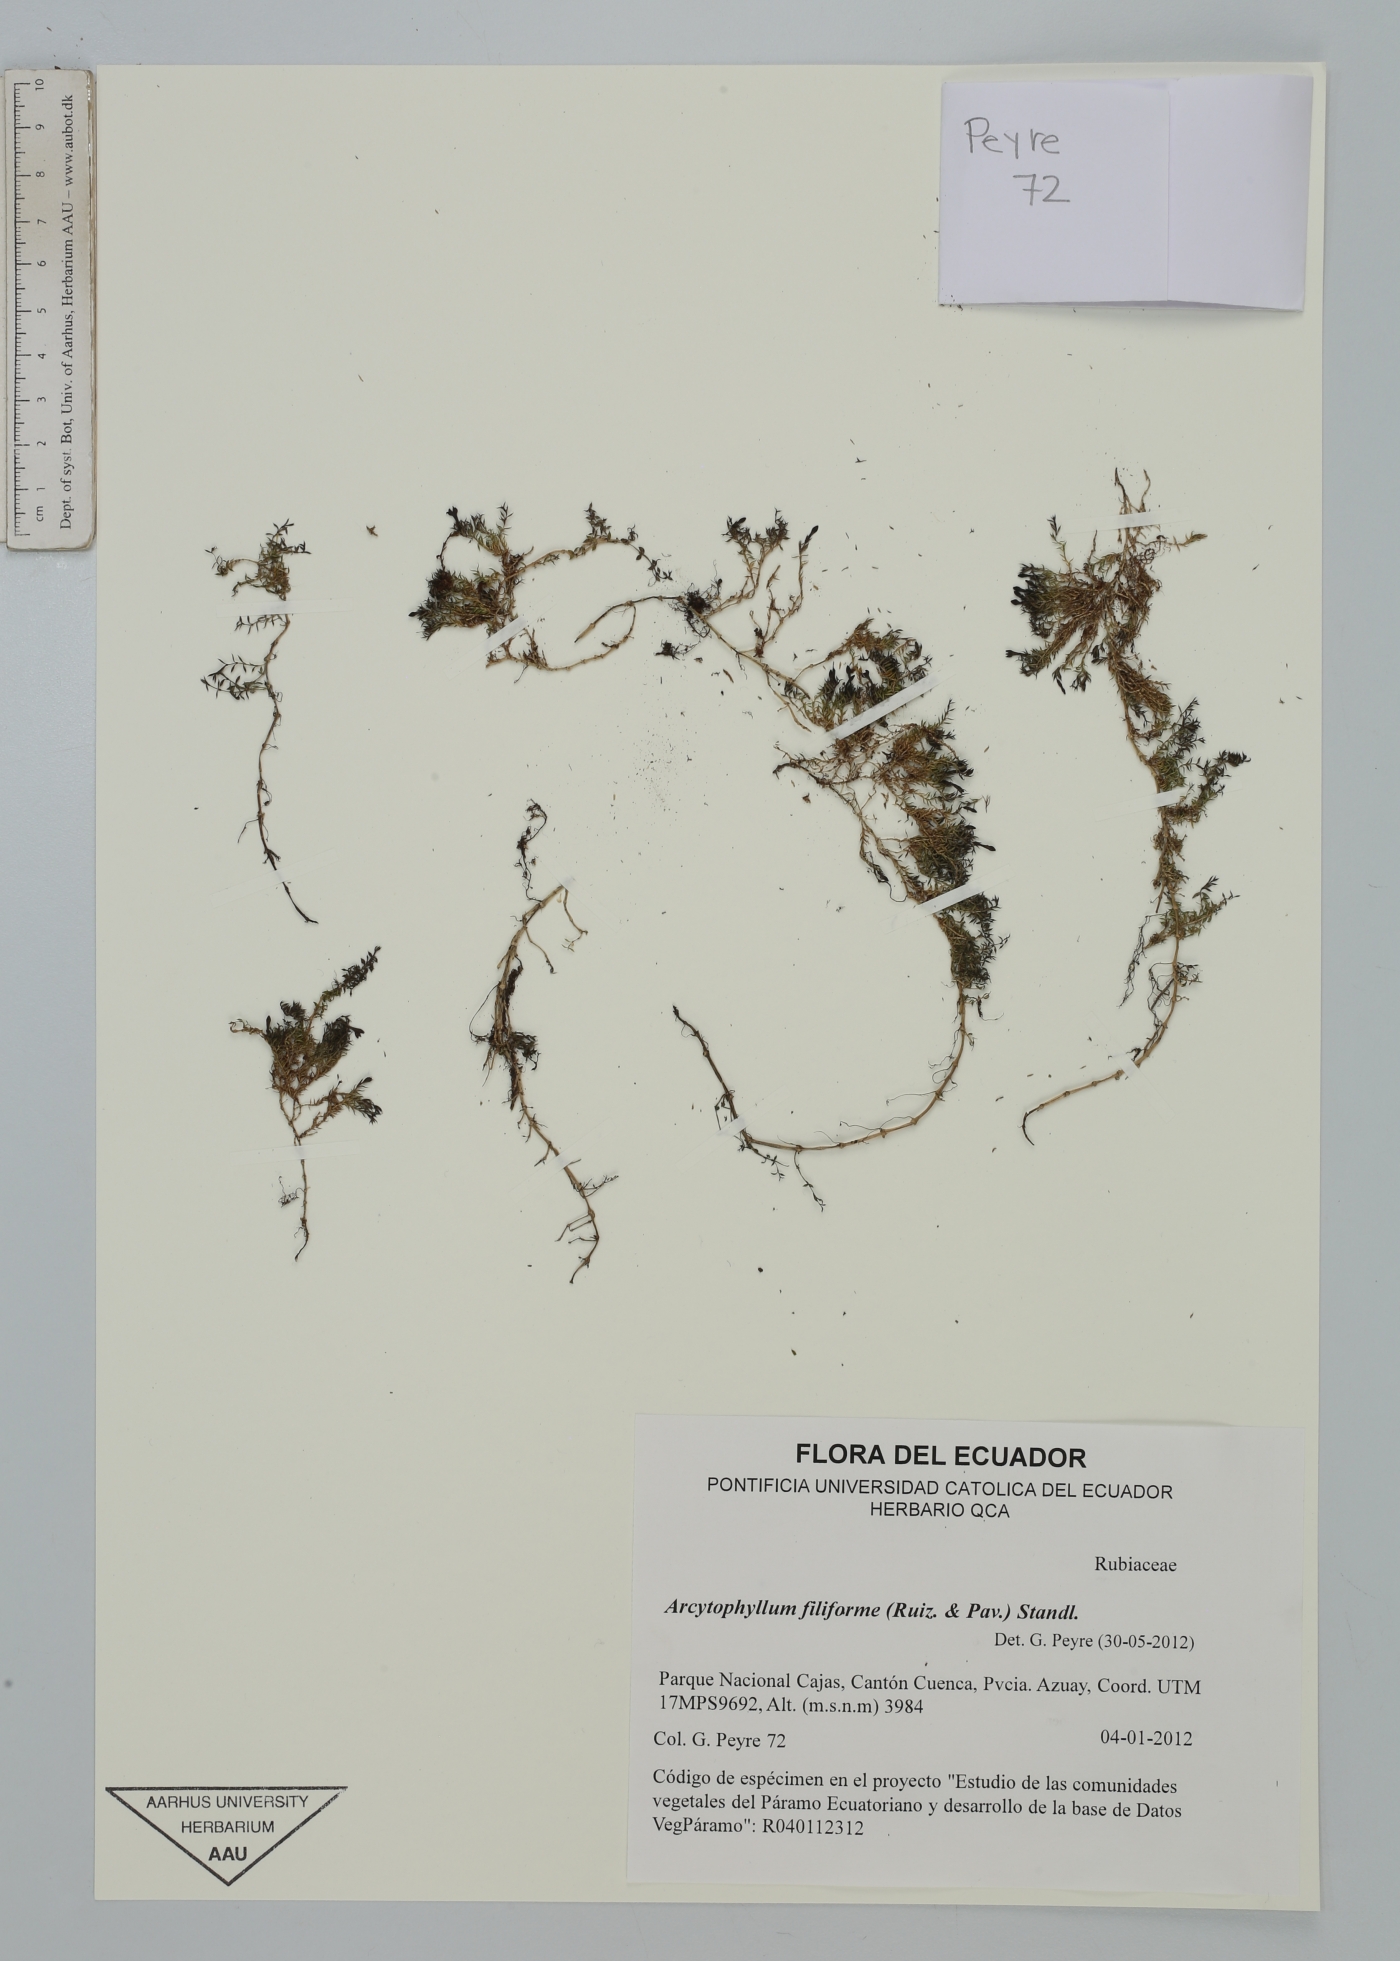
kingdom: Plantae
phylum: Tracheophyta
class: Magnoliopsida
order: Gentianales
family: Rubiaceae
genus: Arcytophyllum
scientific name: Arcytophyllum filiforme
